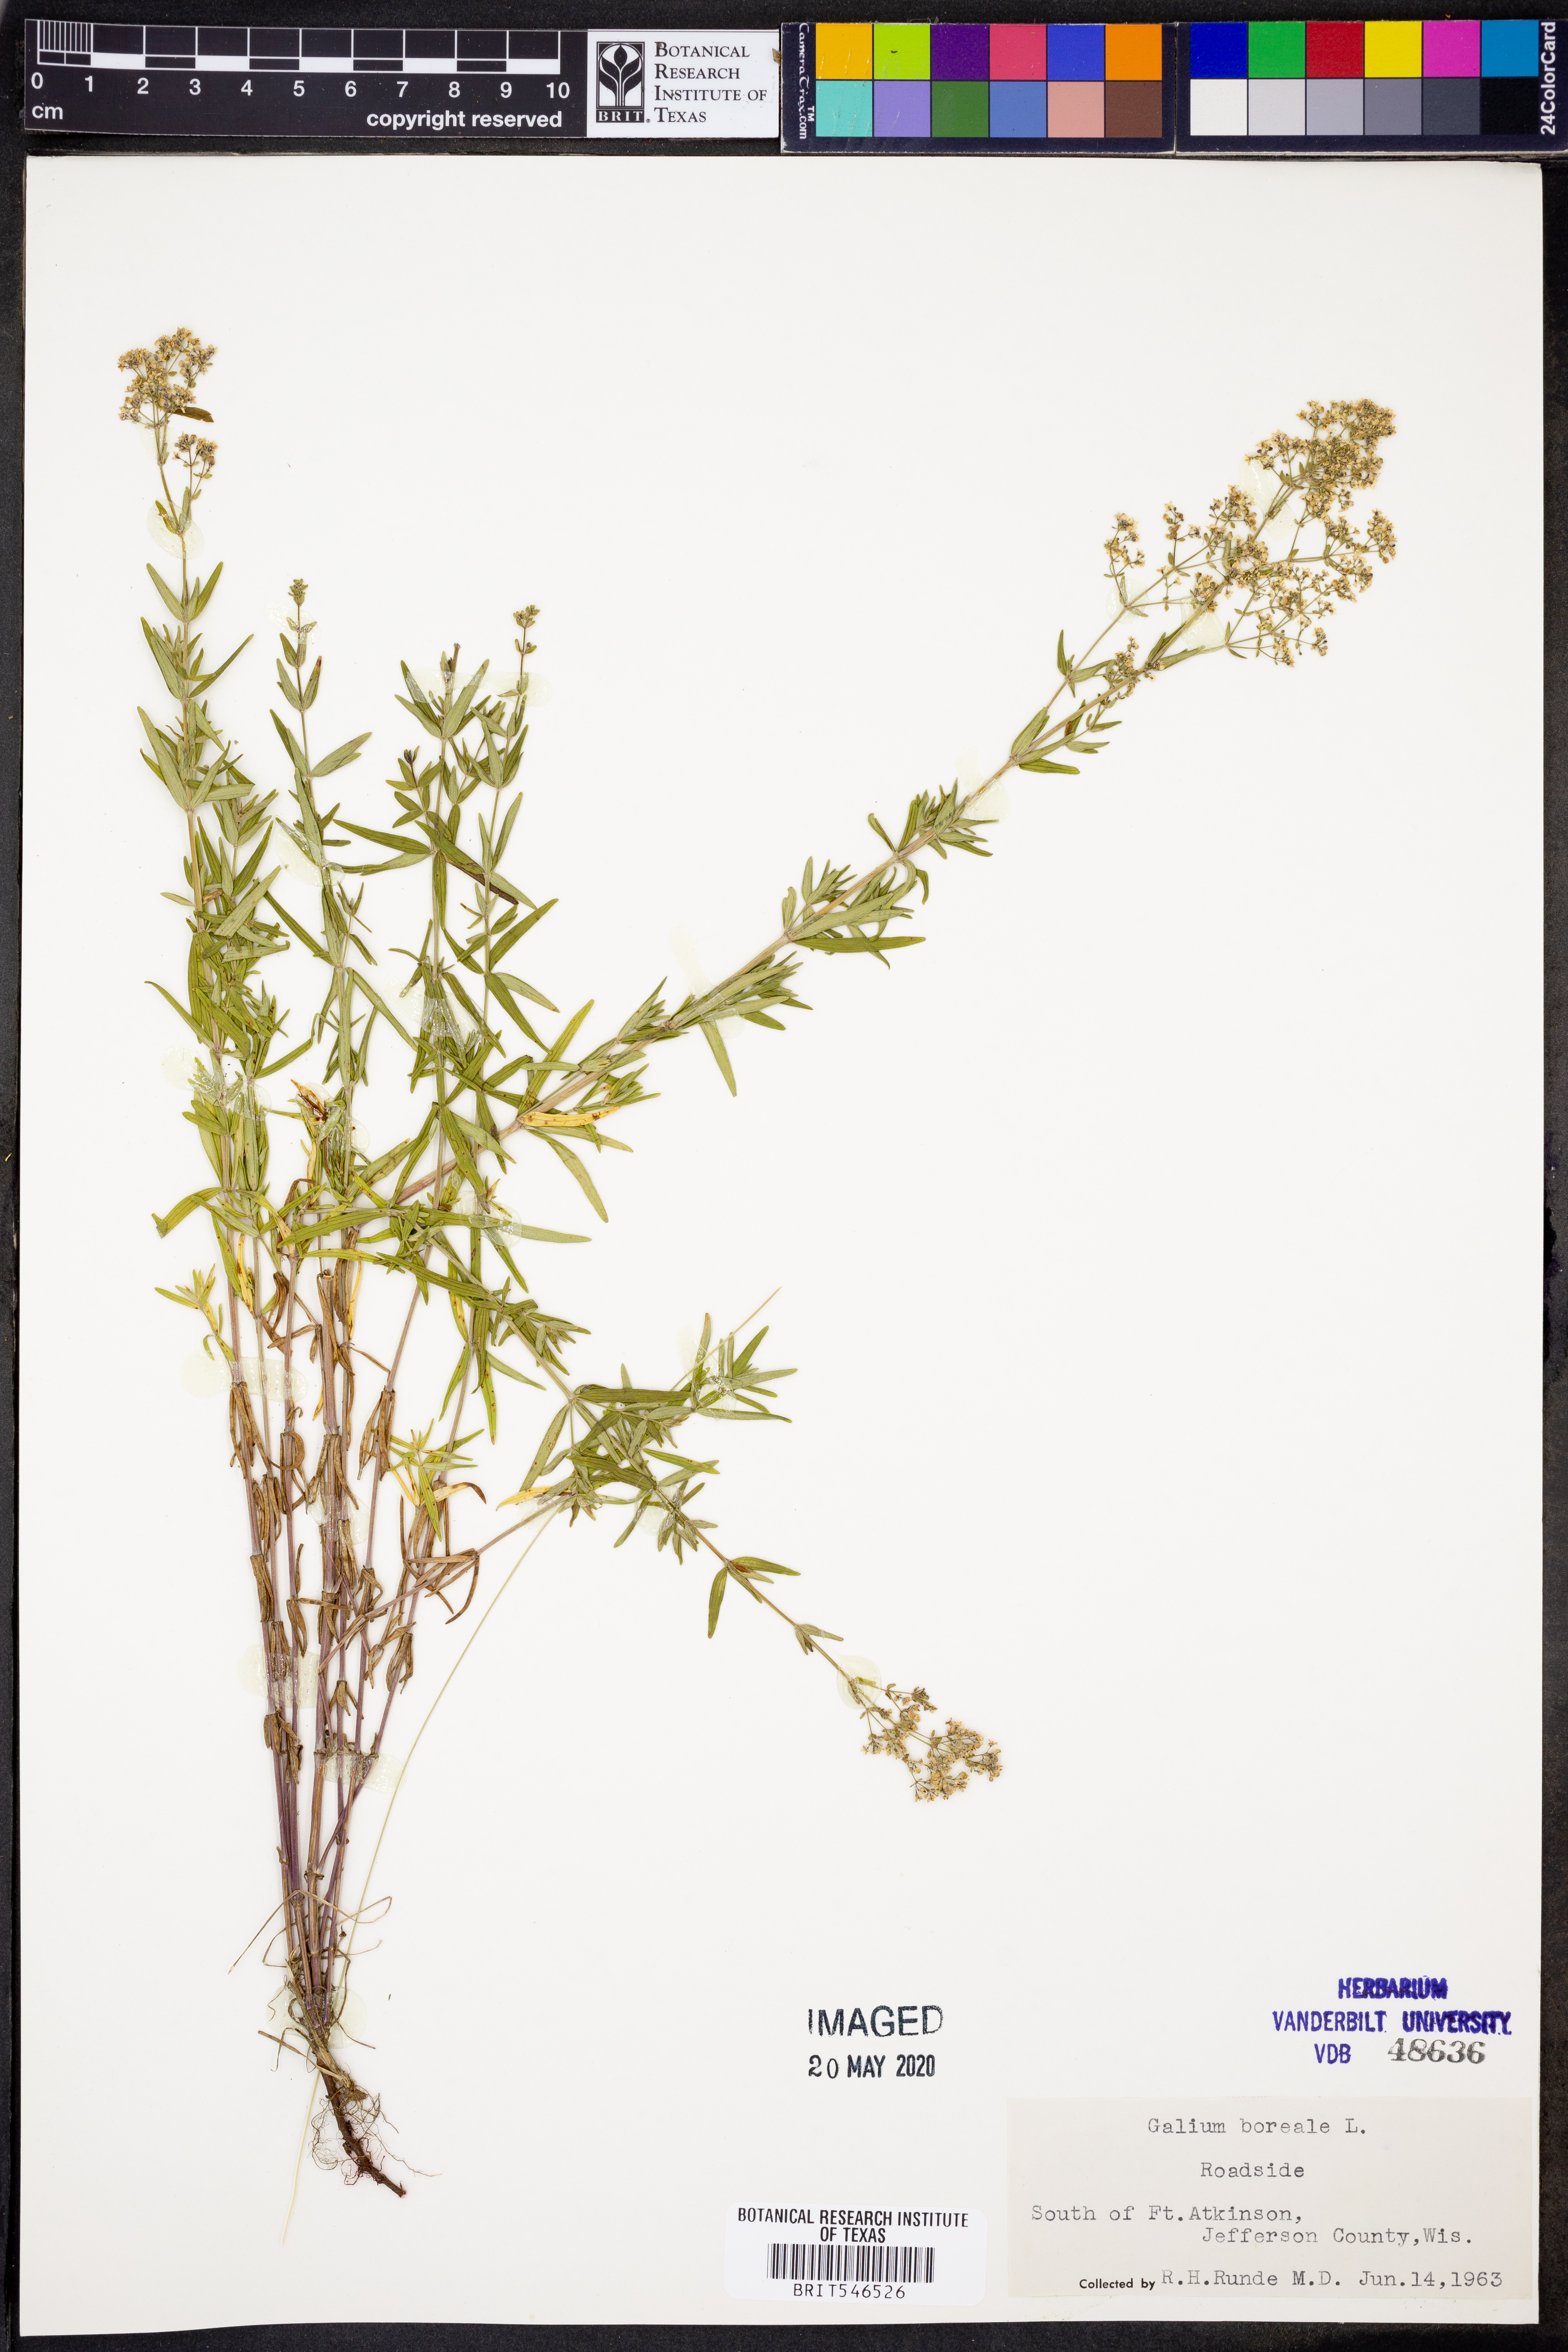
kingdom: Plantae
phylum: Tracheophyta
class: Magnoliopsida
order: Gentianales
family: Rubiaceae
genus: Galium
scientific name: Galium boreale
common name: Northern bedstraw
